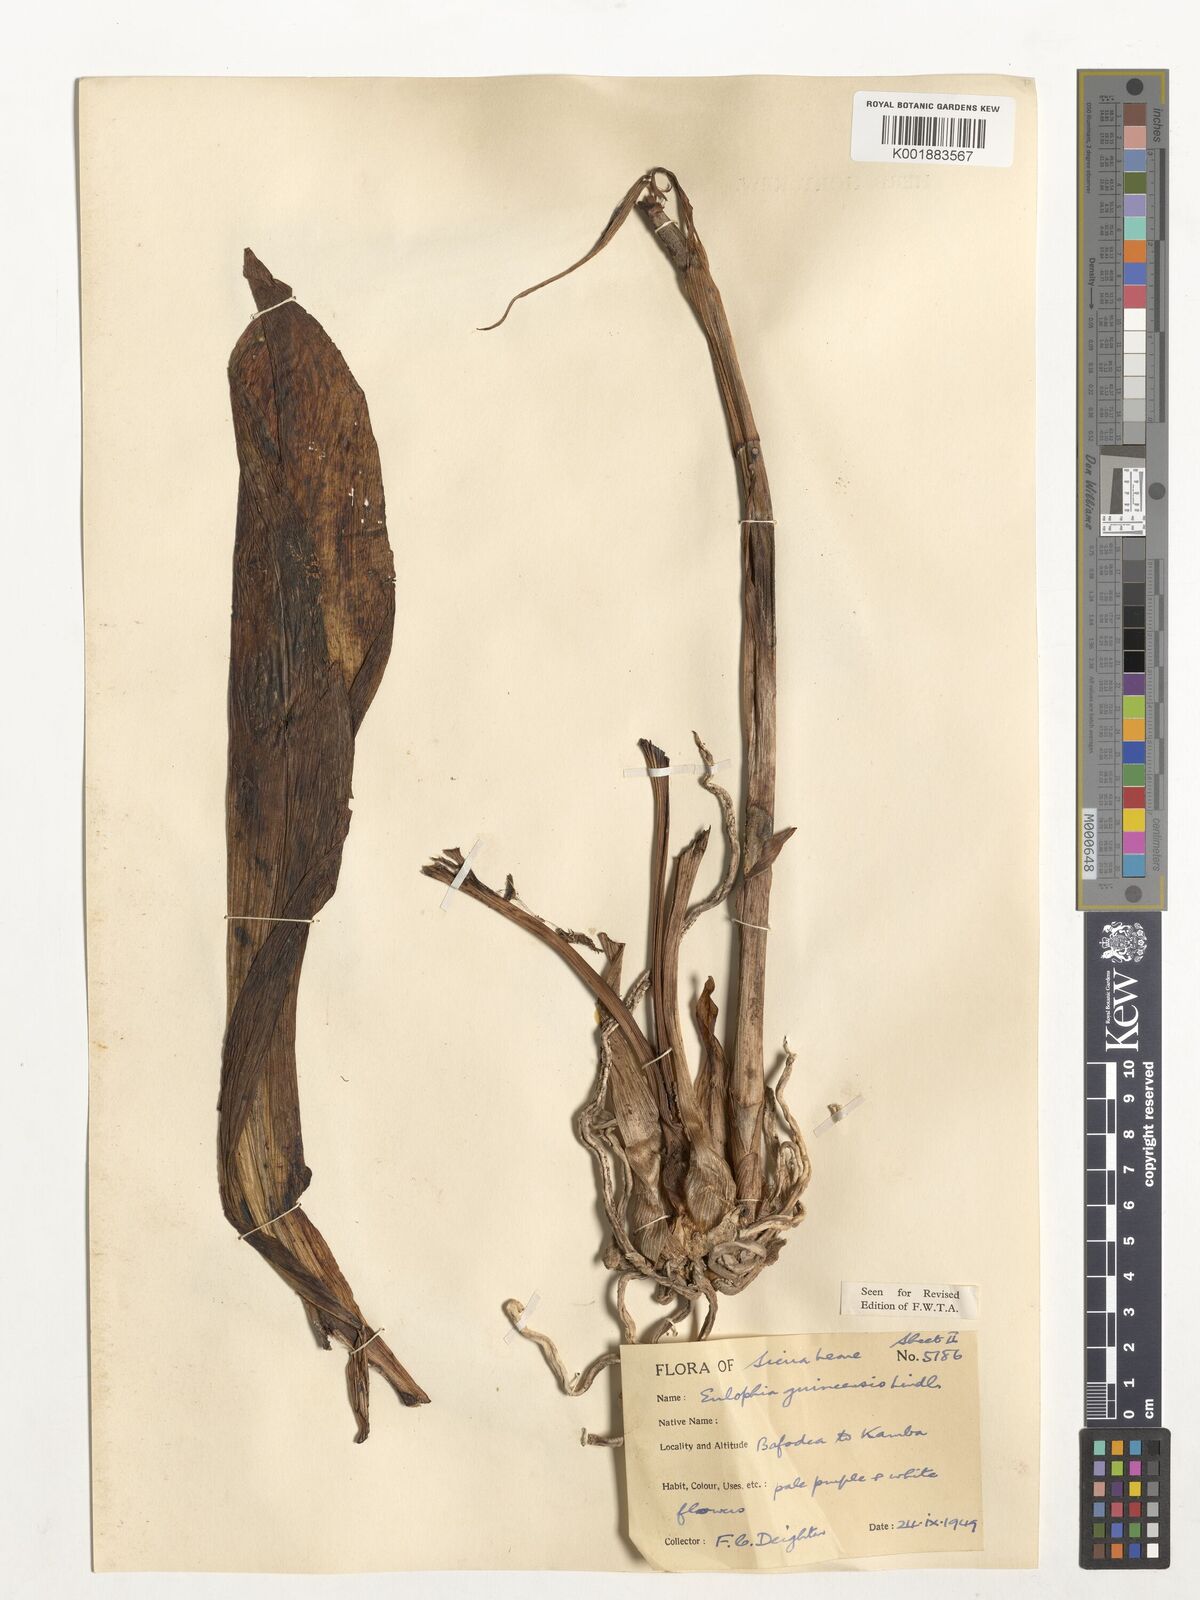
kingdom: Plantae
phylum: Tracheophyta
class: Liliopsida
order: Asparagales
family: Orchidaceae
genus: Calyptrochilum
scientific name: Calyptrochilum christyanum
